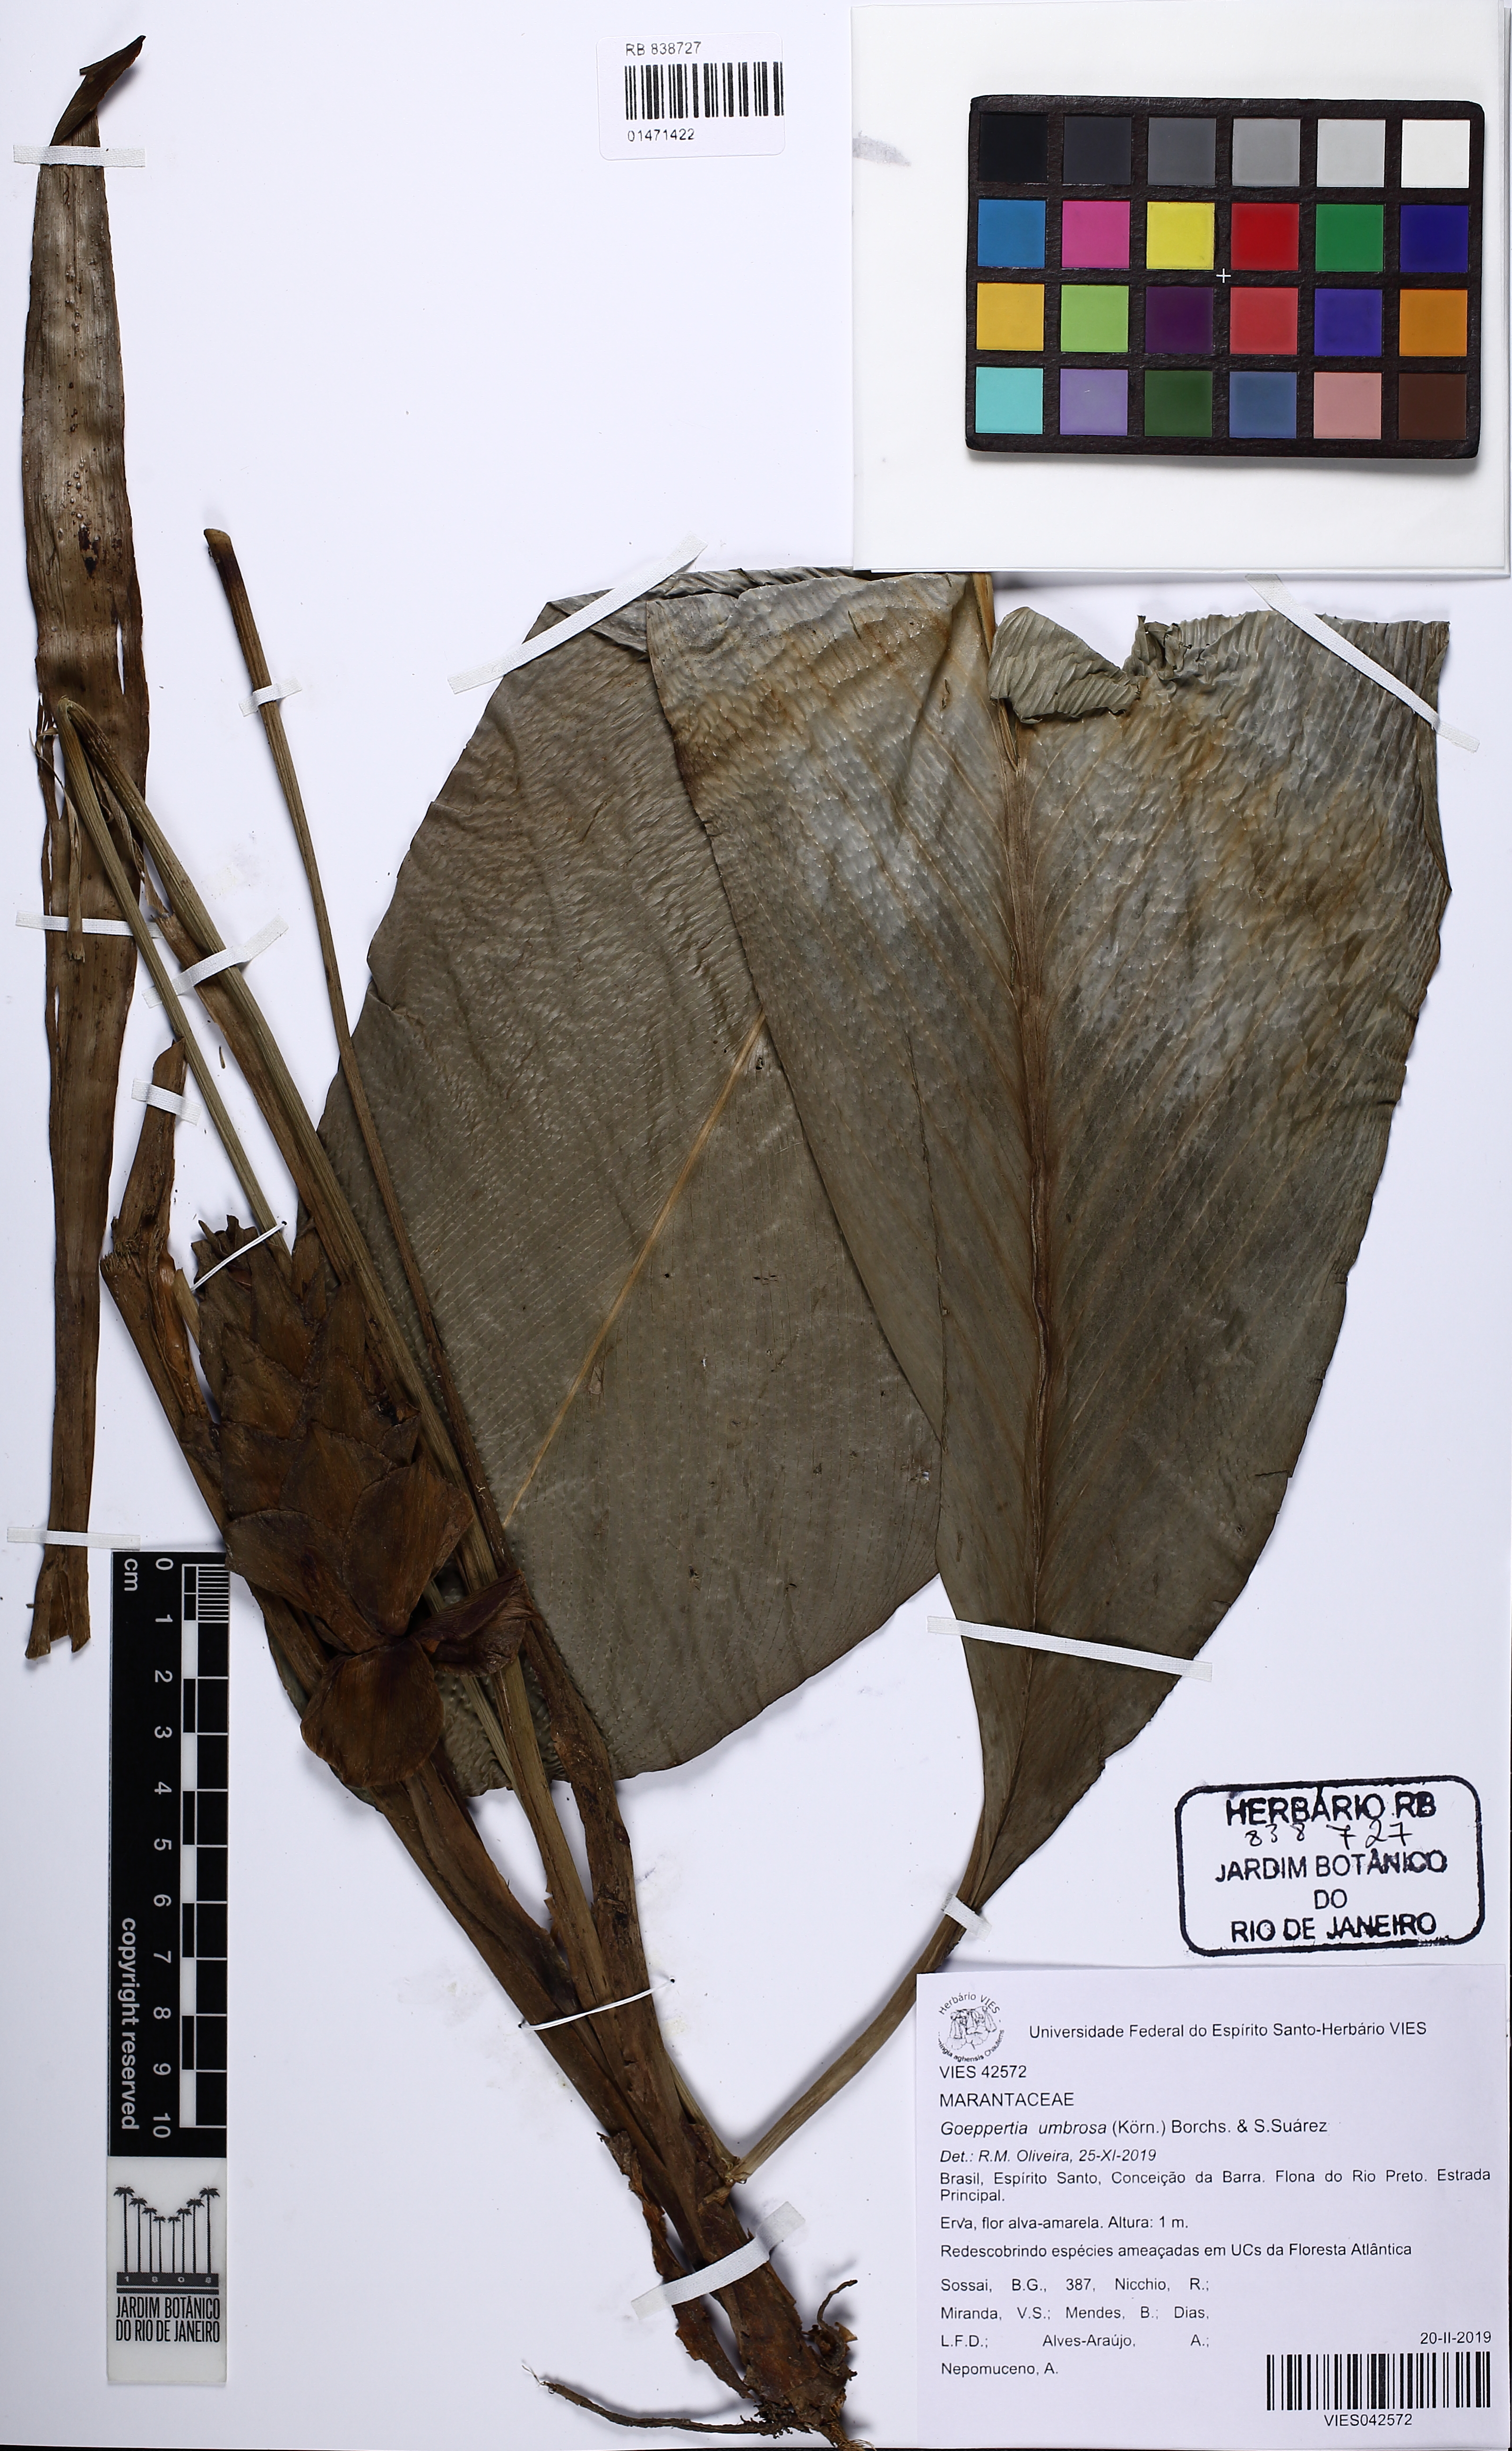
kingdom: Plantae
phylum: Tracheophyta
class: Liliopsida
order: Zingiberales
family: Marantaceae
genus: Goeppertia
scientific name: Goeppertia umbrosa
